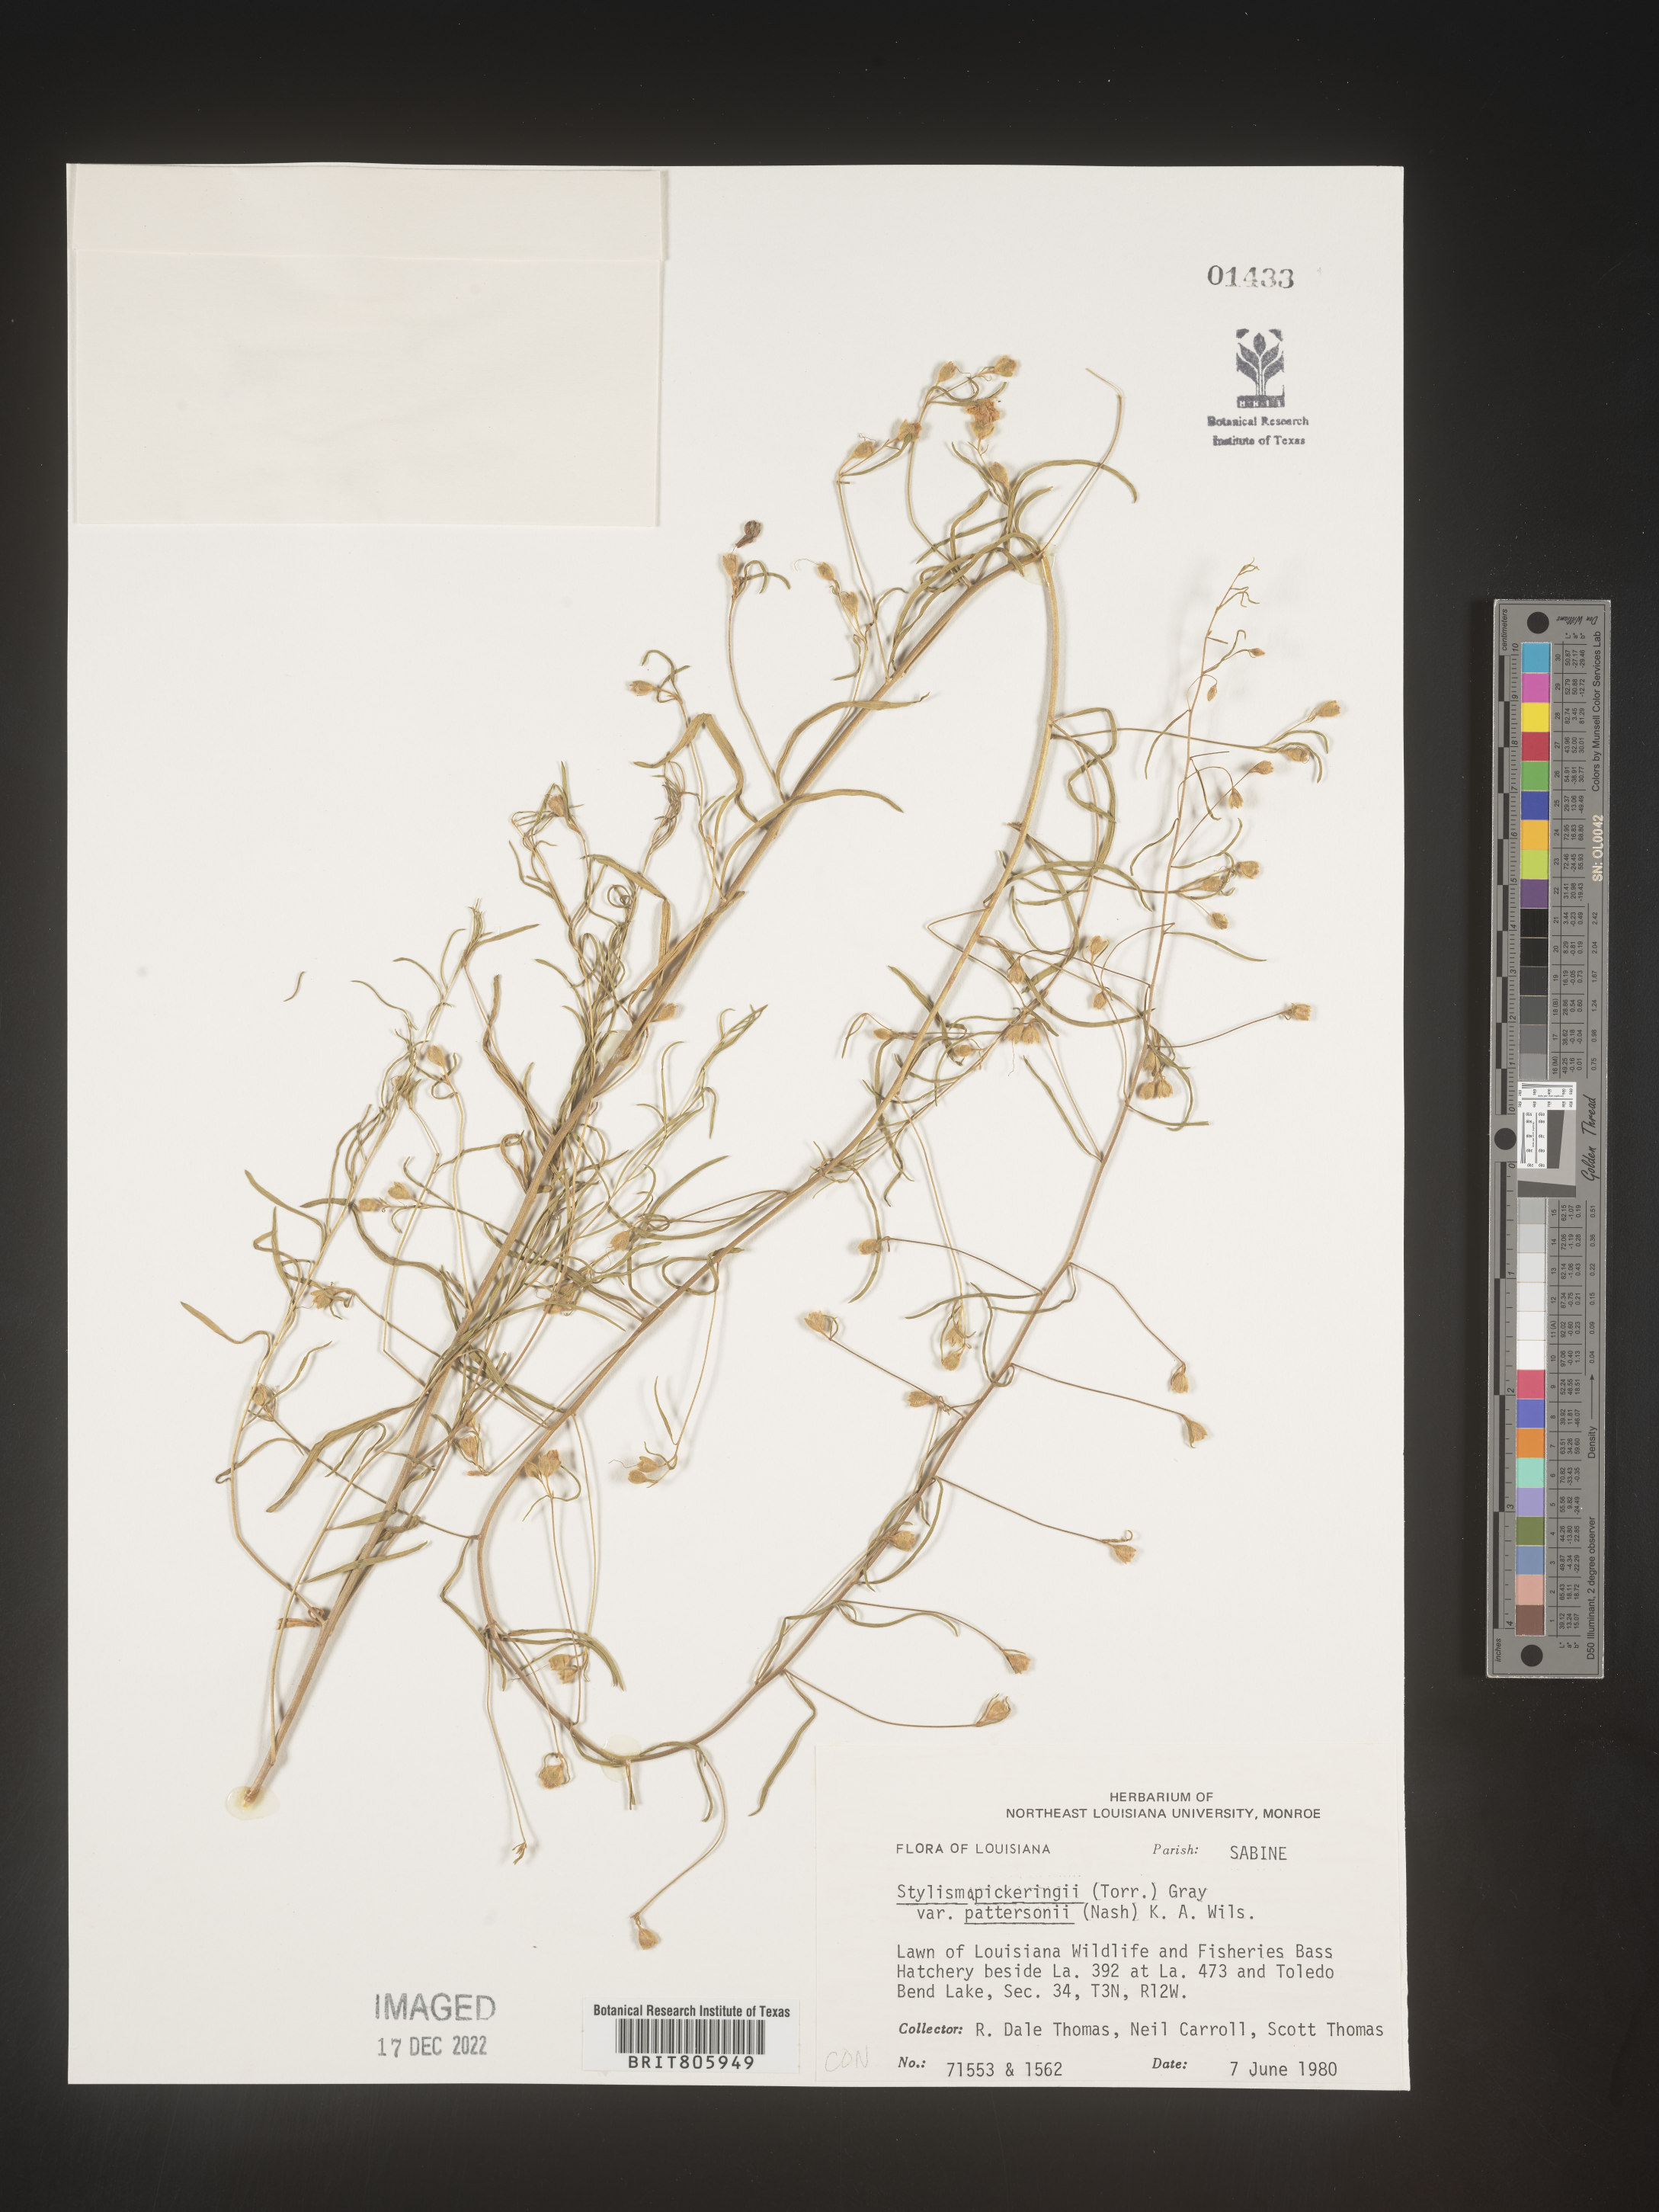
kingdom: Plantae
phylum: Tracheophyta
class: Magnoliopsida
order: Solanales
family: Convolvulaceae
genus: Stylisma
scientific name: Stylisma
